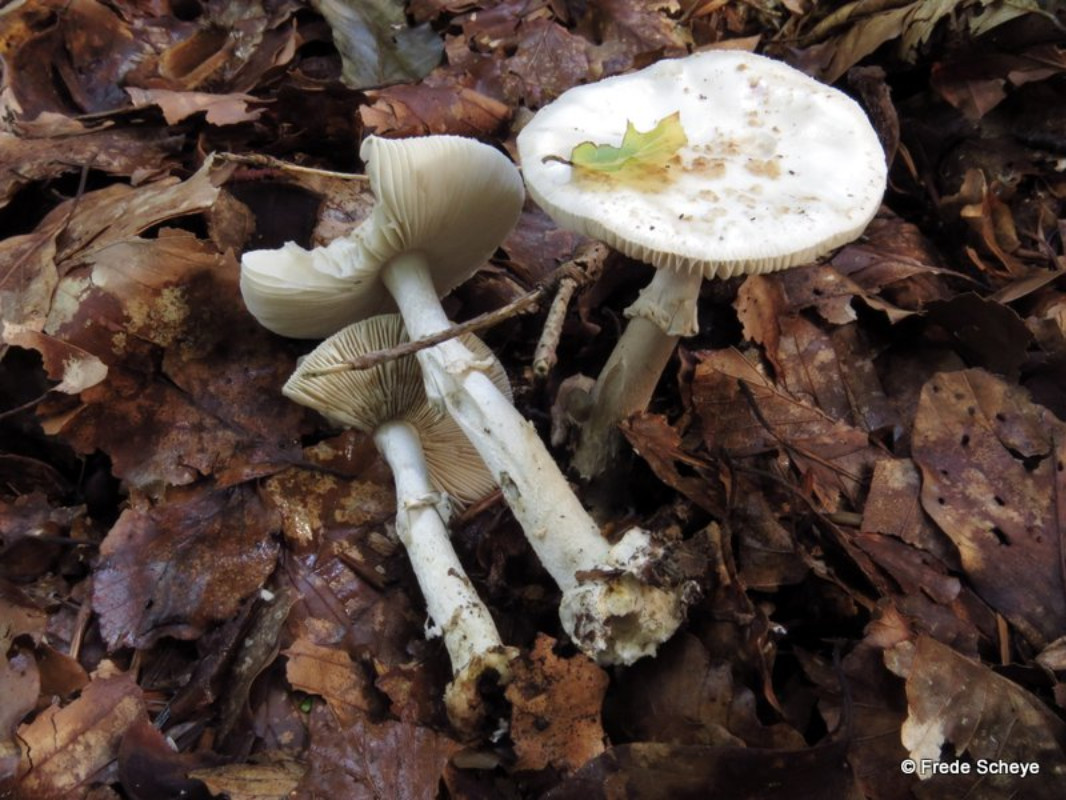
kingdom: Fungi
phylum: Basidiomycota
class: Agaricomycetes
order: Agaricales
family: Amanitaceae
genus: Amanita
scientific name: Amanita citrina
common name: kugleknoldet fluesvamp
